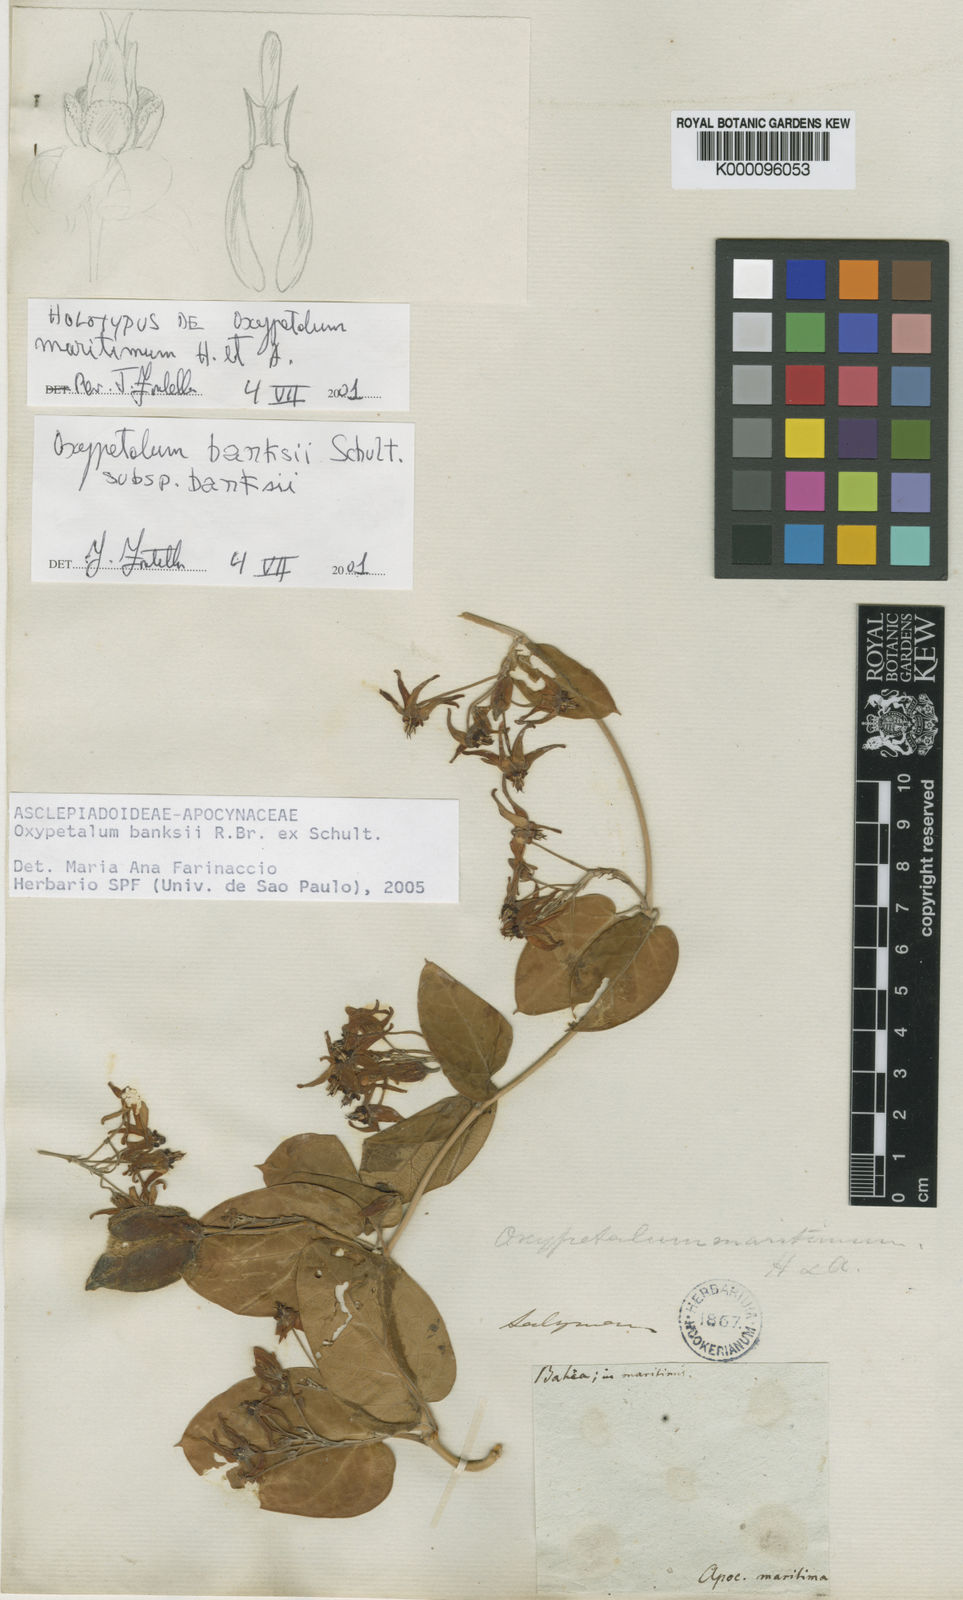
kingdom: Plantae
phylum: Tracheophyta
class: Magnoliopsida
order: Gentianales
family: Apocynaceae
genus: Oxypetalum
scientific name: Oxypetalum banksii
